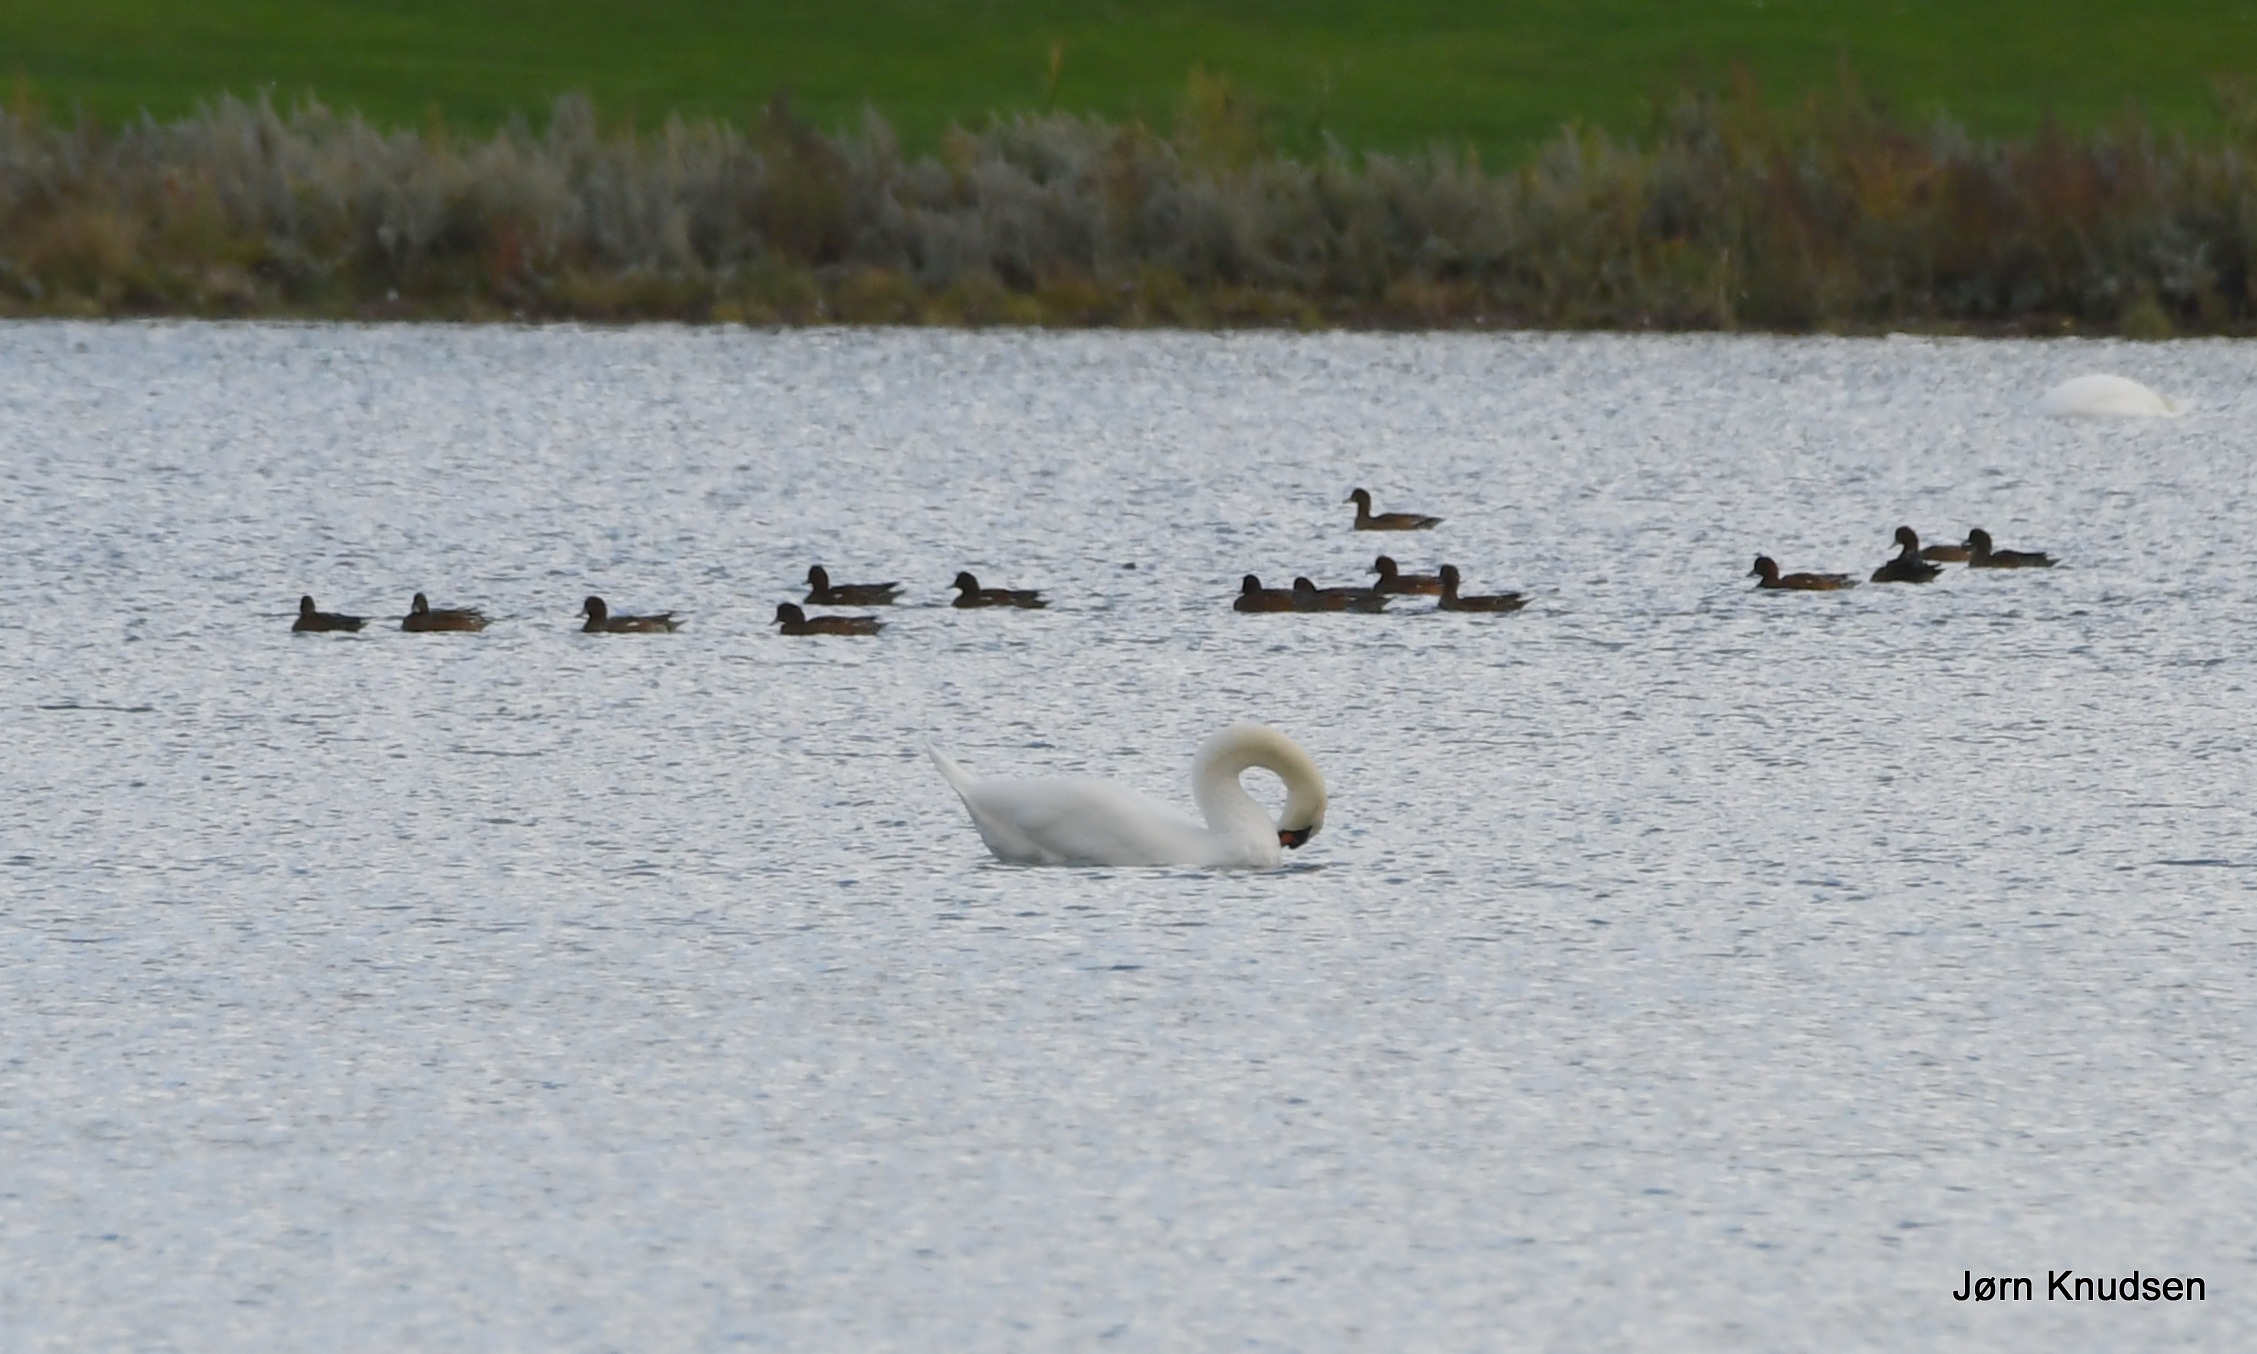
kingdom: Animalia
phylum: Chordata
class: Aves
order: Anseriformes
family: Anatidae
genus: Mareca
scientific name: Mareca penelope
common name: Pibeand
